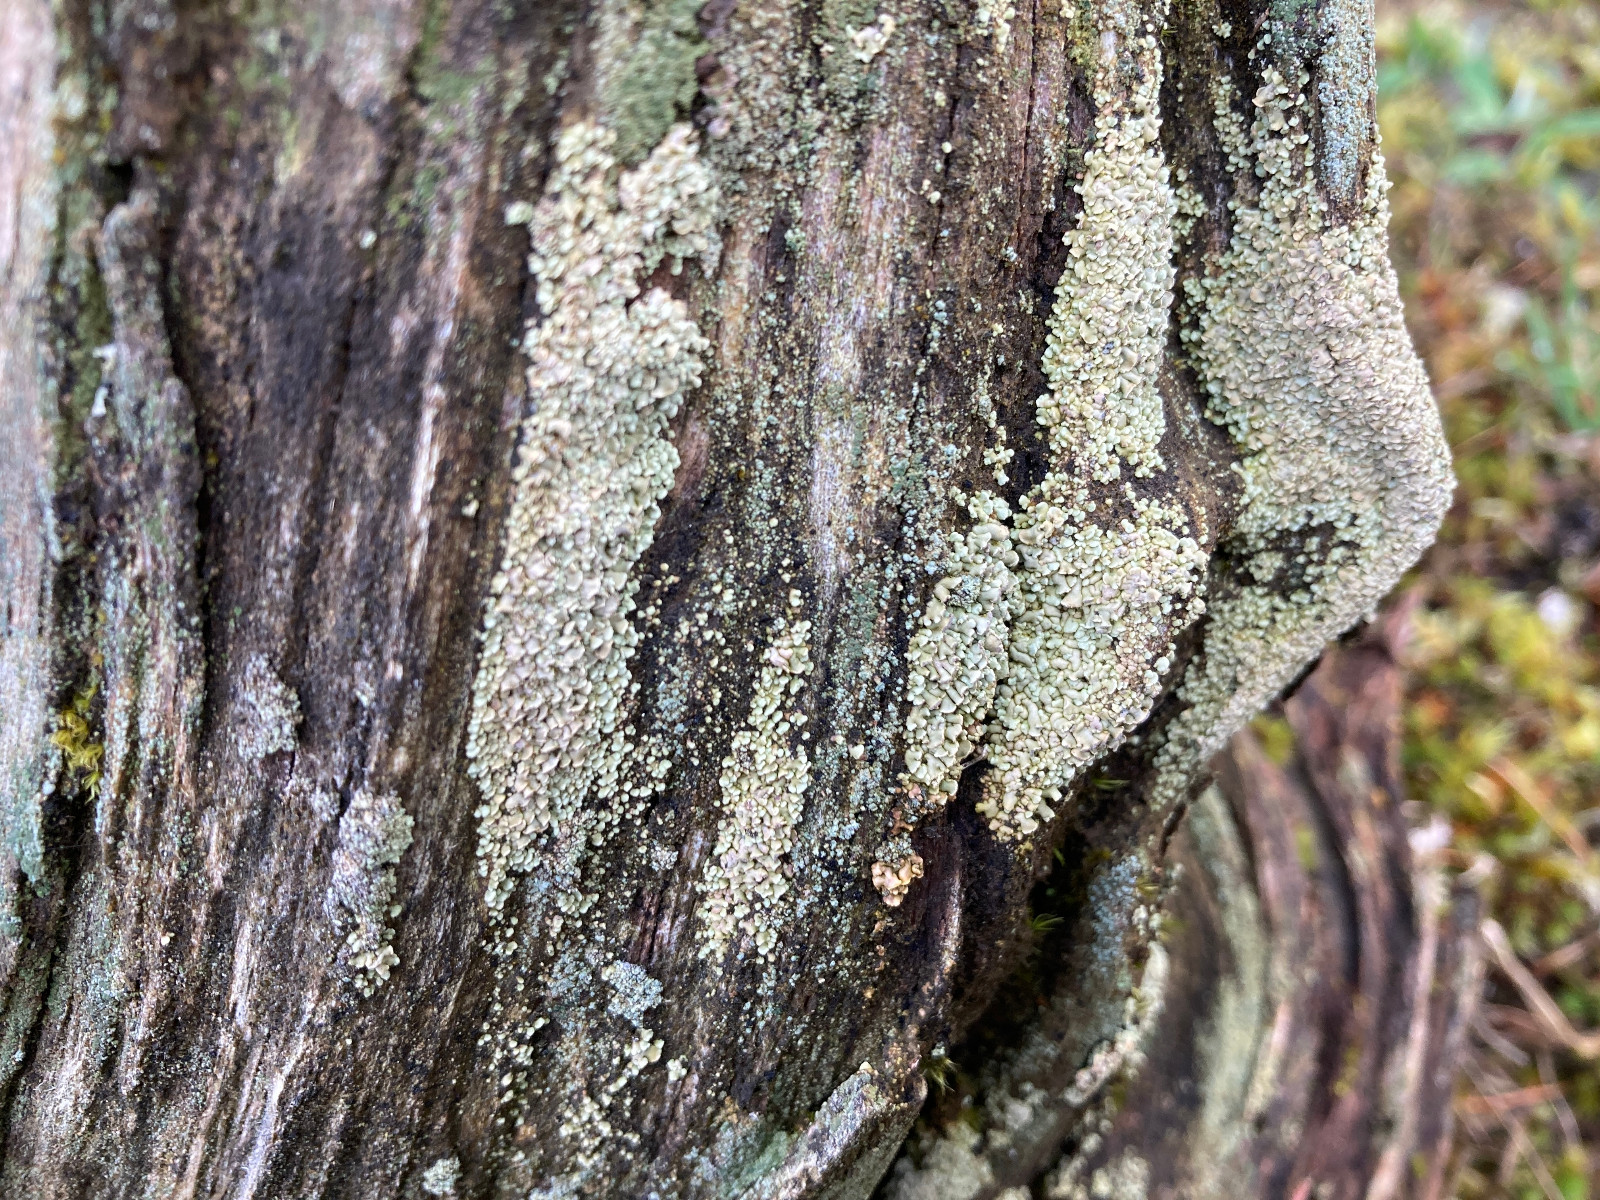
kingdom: Fungi
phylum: Ascomycota
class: Lecanoromycetes
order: Umbilicariales
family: Ophioparmaceae
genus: Hypocenomyce
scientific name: Hypocenomyce scalaris
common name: småskællet muslinglav
